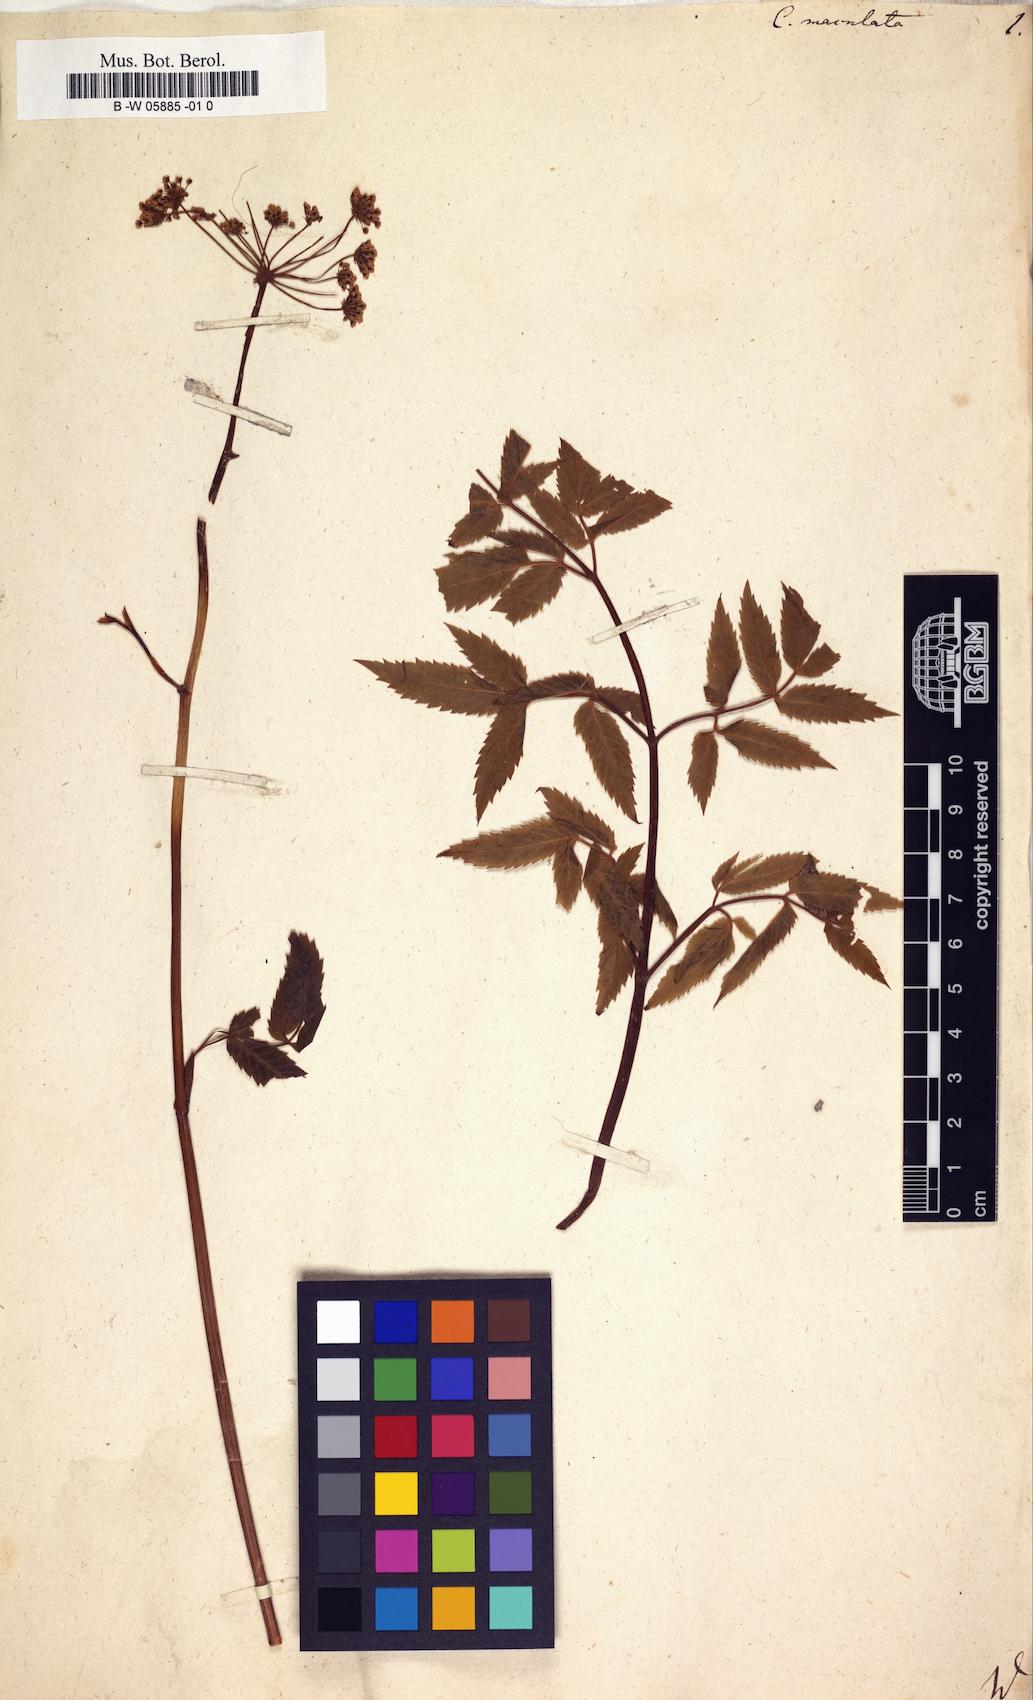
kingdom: Plantae
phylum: Tracheophyta
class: Magnoliopsida
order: Apiales
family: Apiaceae
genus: Cicuta
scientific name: Cicuta maculata
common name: Spotted cowbane
